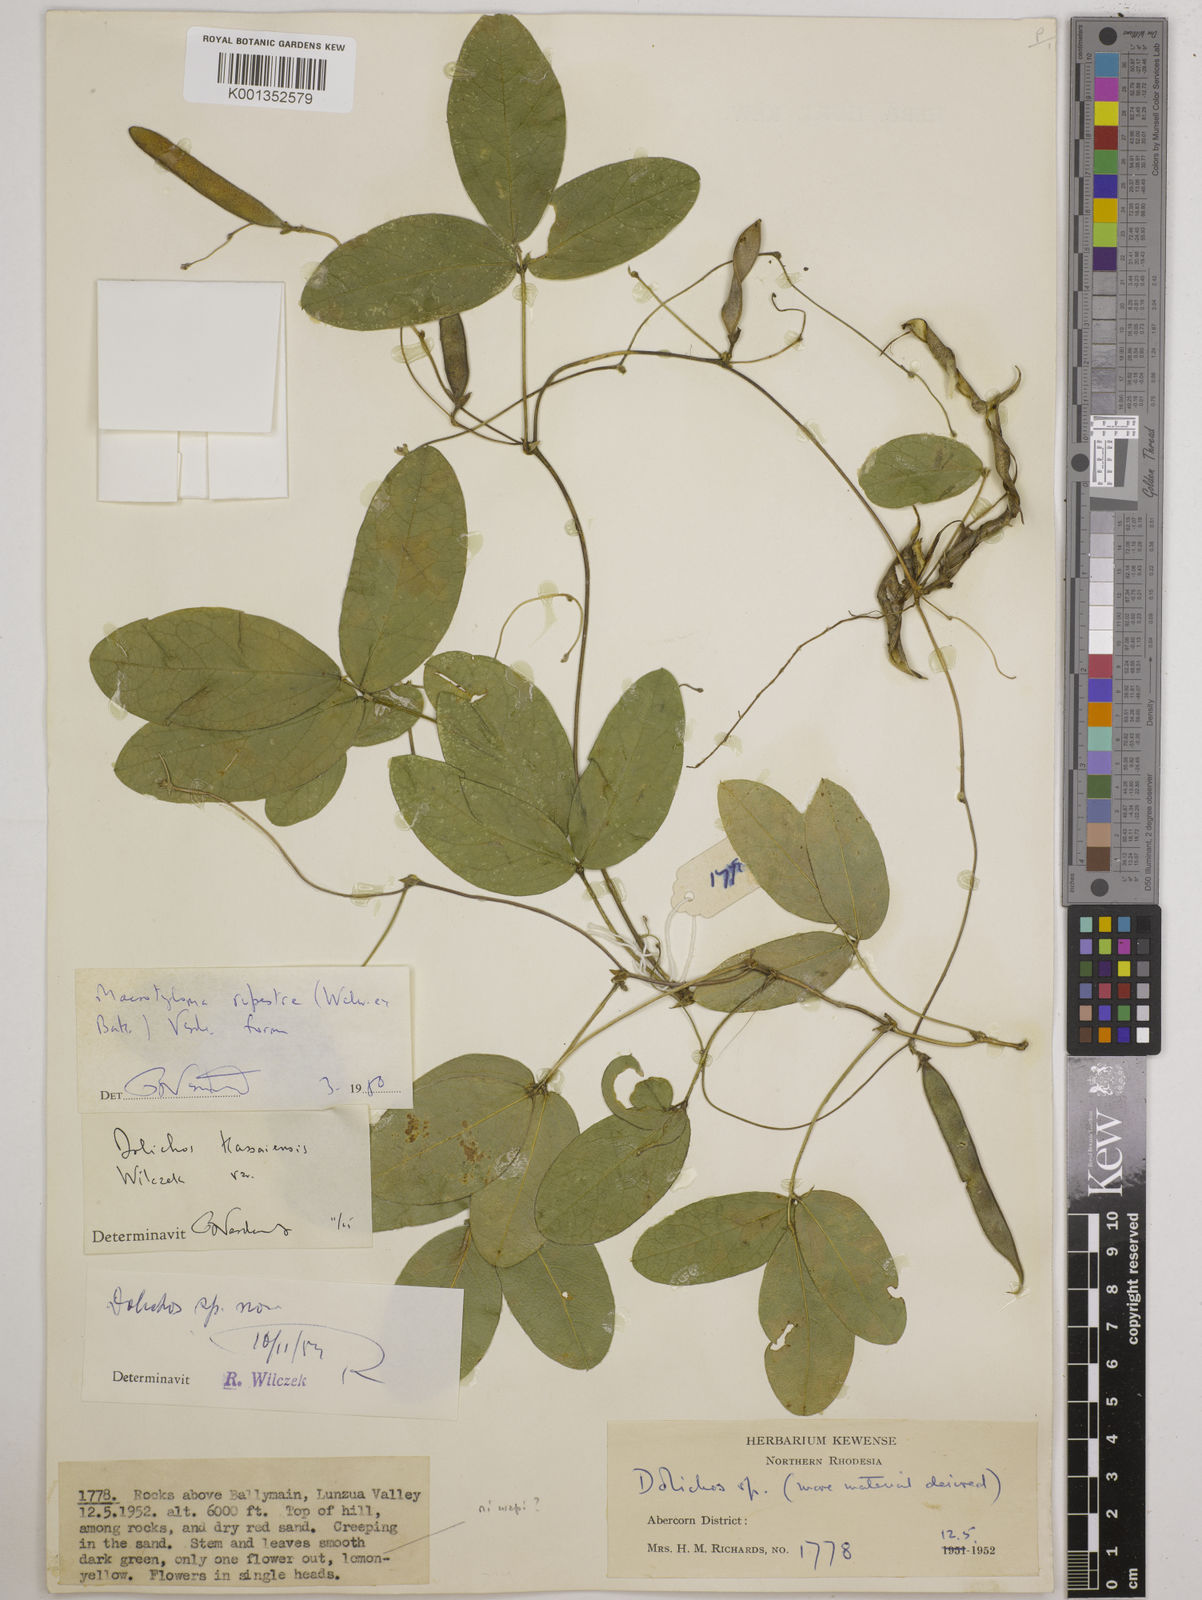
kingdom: Plantae
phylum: Tracheophyta
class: Magnoliopsida
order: Fabales
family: Fabaceae
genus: Macrotyloma
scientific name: Macrotyloma rupestre
